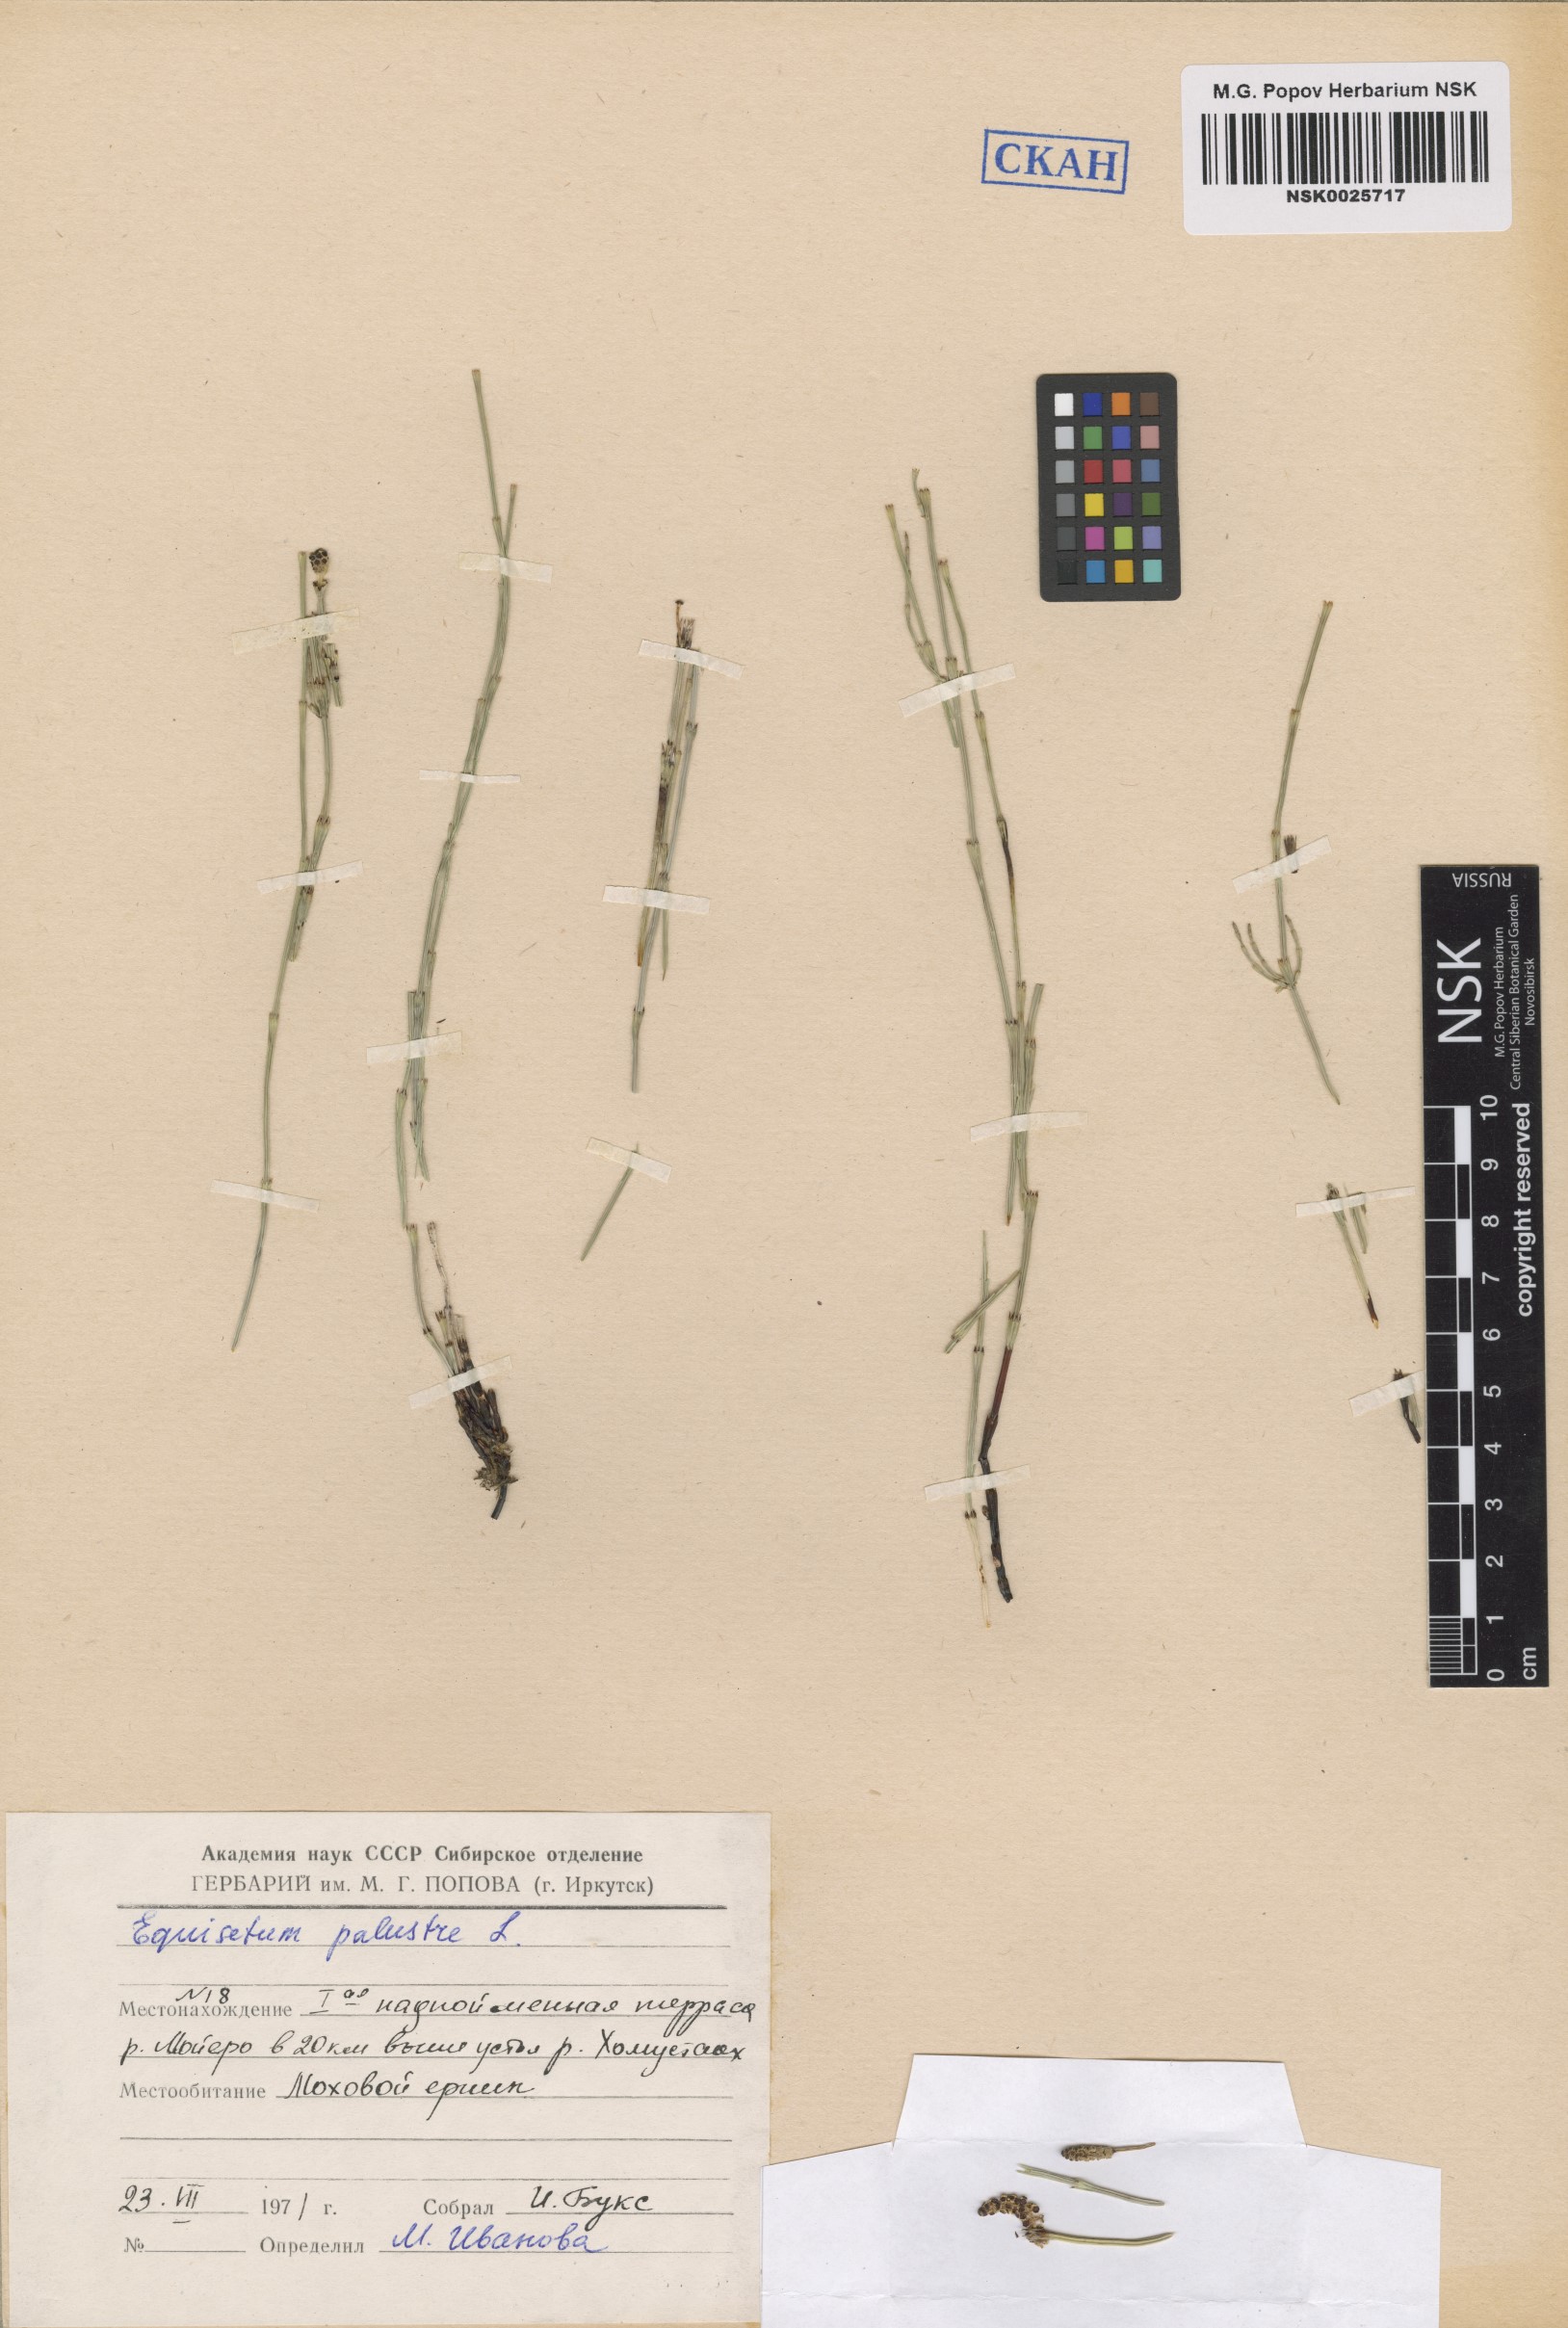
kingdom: Plantae
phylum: Tracheophyta
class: Polypodiopsida
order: Equisetales
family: Equisetaceae
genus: Equisetum
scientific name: Equisetum palustre
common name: Marsh horsetail
